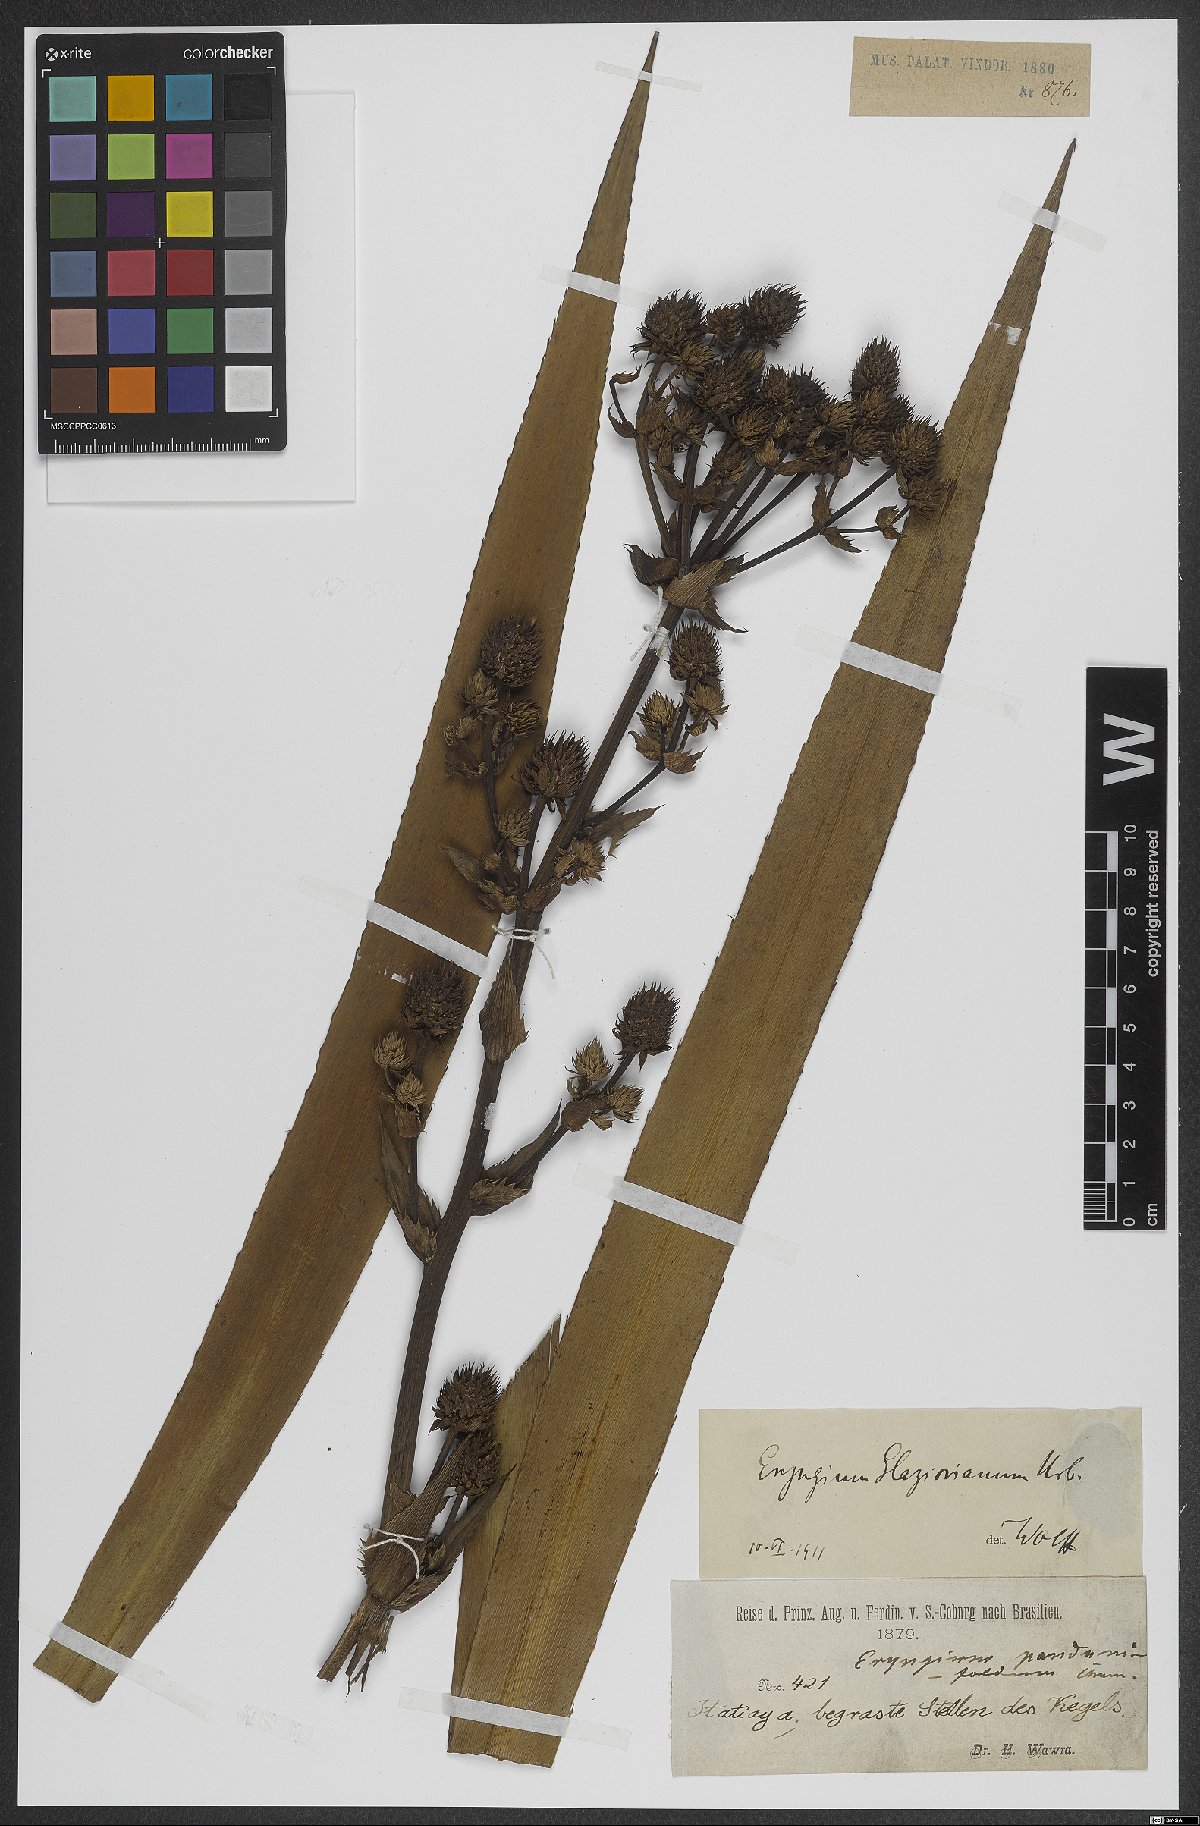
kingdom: Plantae
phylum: Tracheophyta
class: Magnoliopsida
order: Apiales
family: Apiaceae
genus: Eryngium
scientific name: Eryngium glaziovianum
